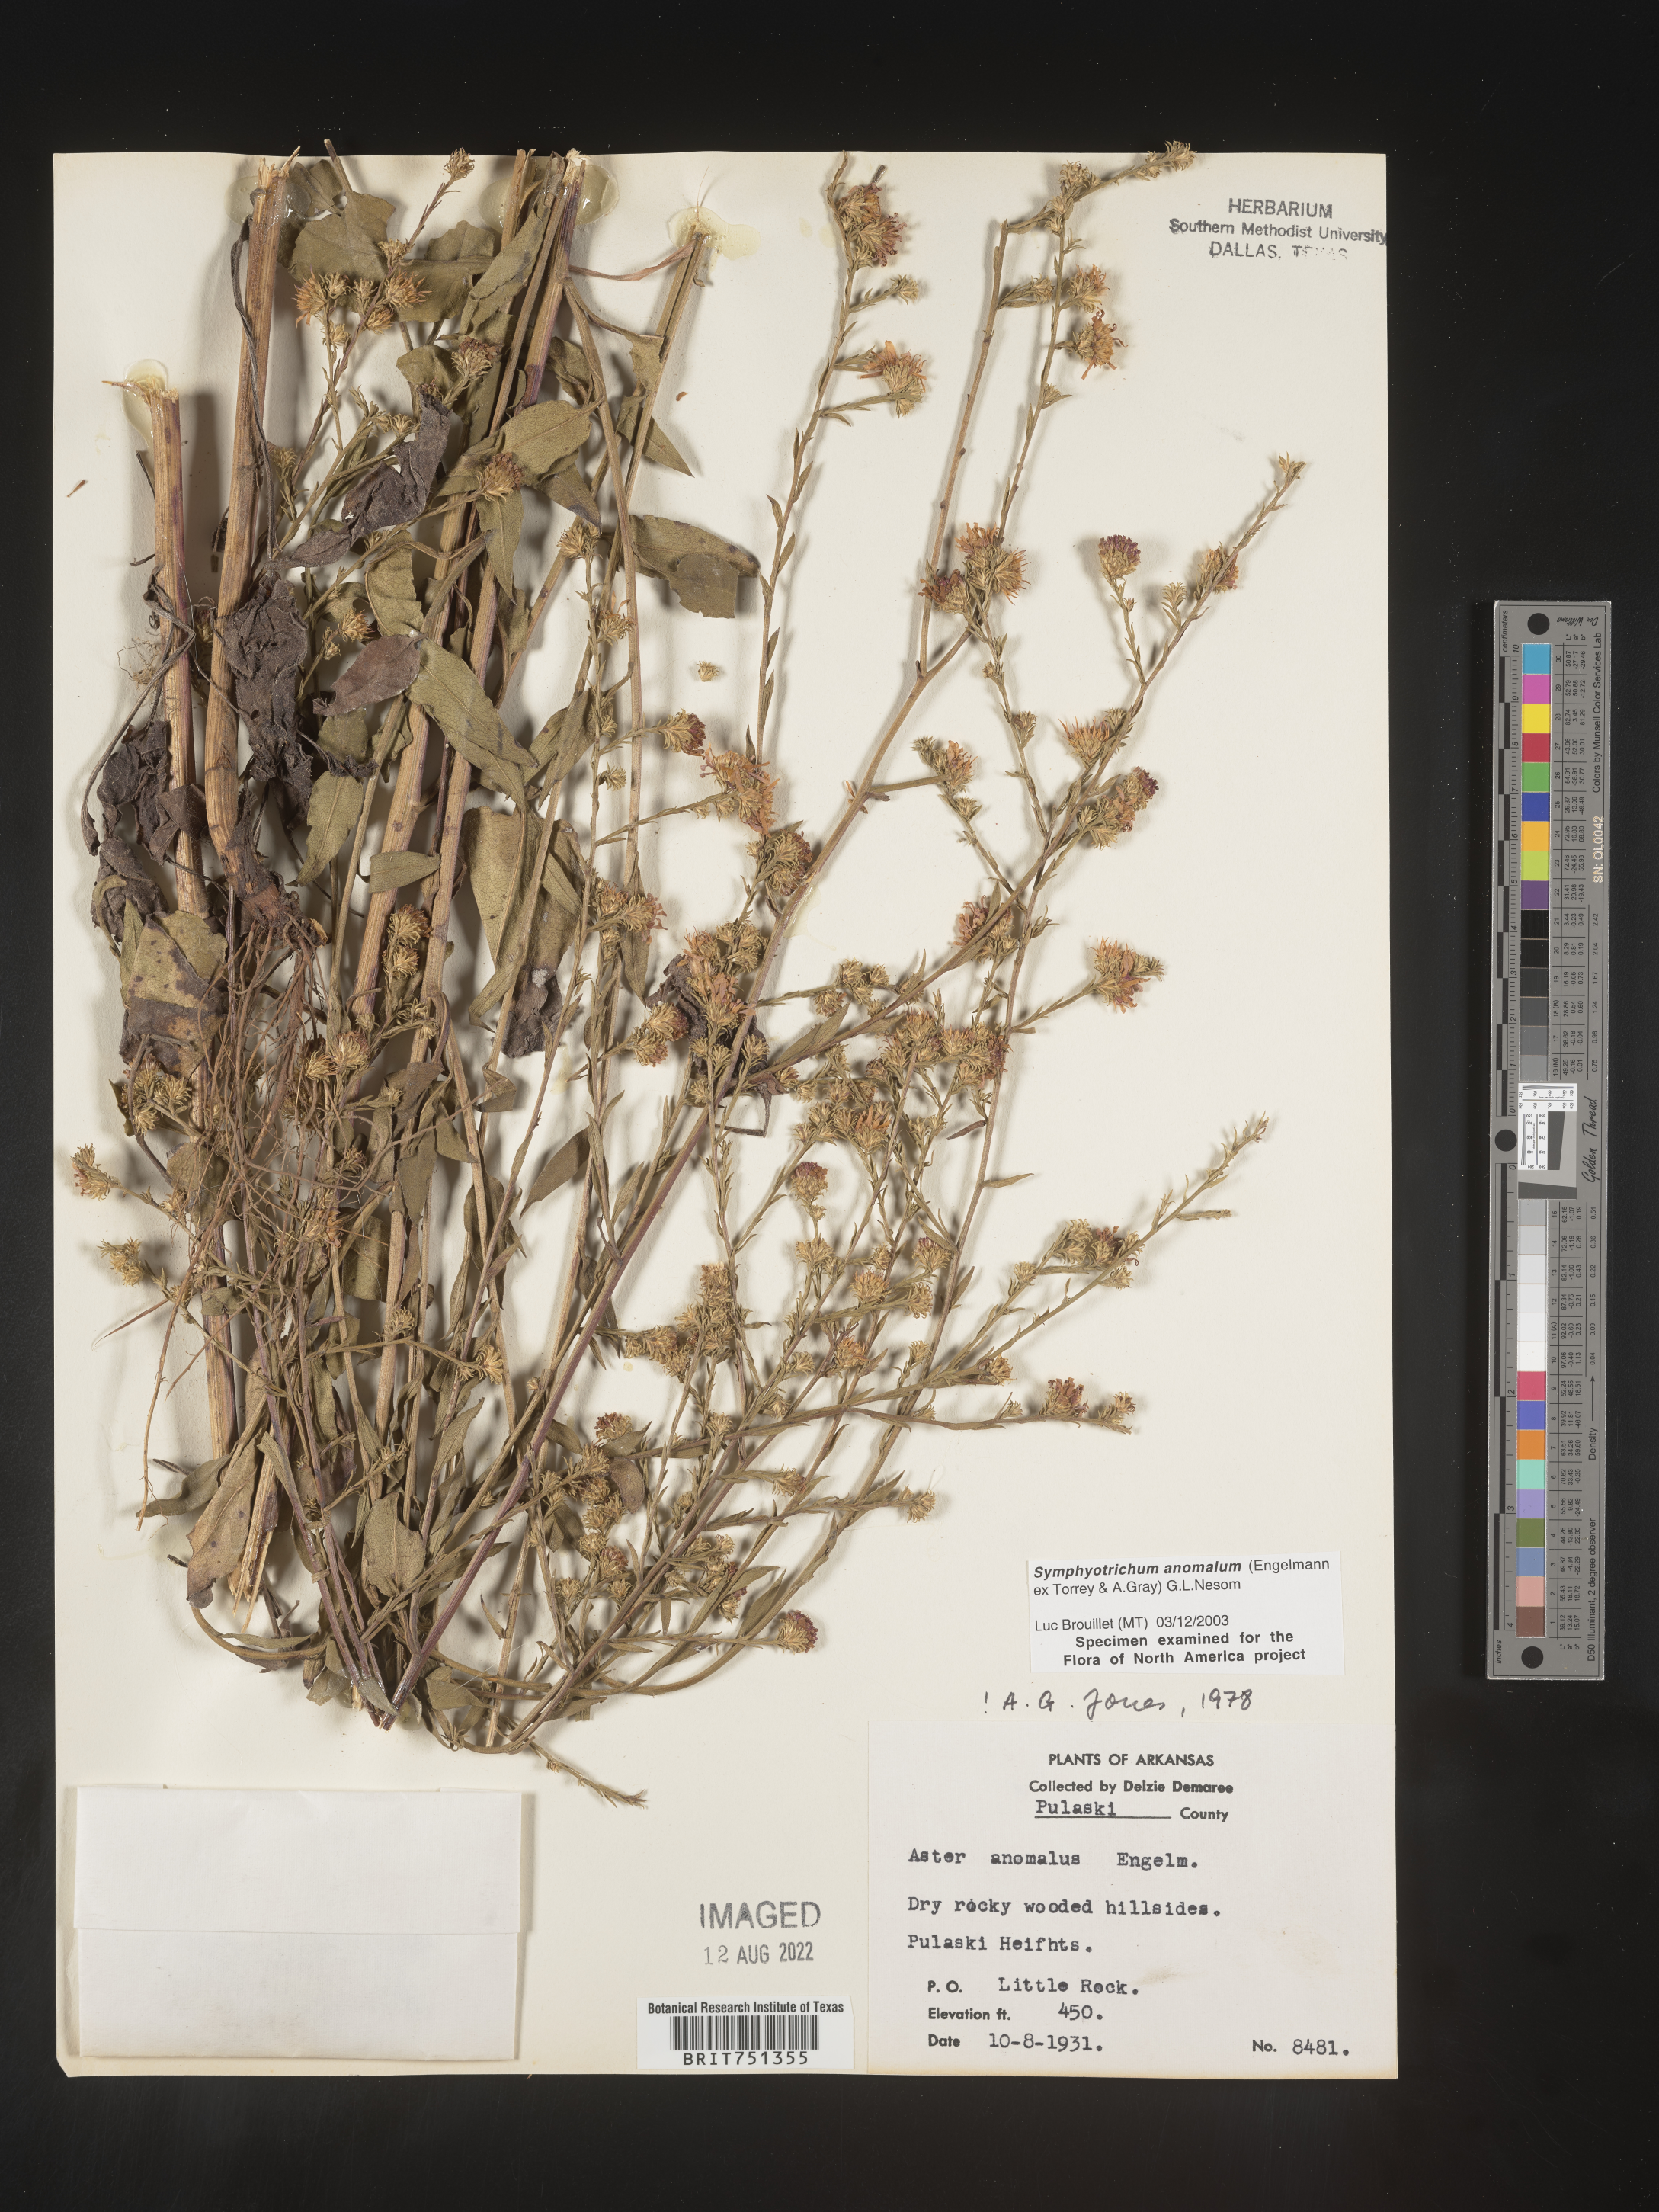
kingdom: Plantae
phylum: Tracheophyta
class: Magnoliopsida
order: Asterales
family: Asteraceae
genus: Symphyotrichum
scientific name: Symphyotrichum anomalum
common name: Many-ray aster
